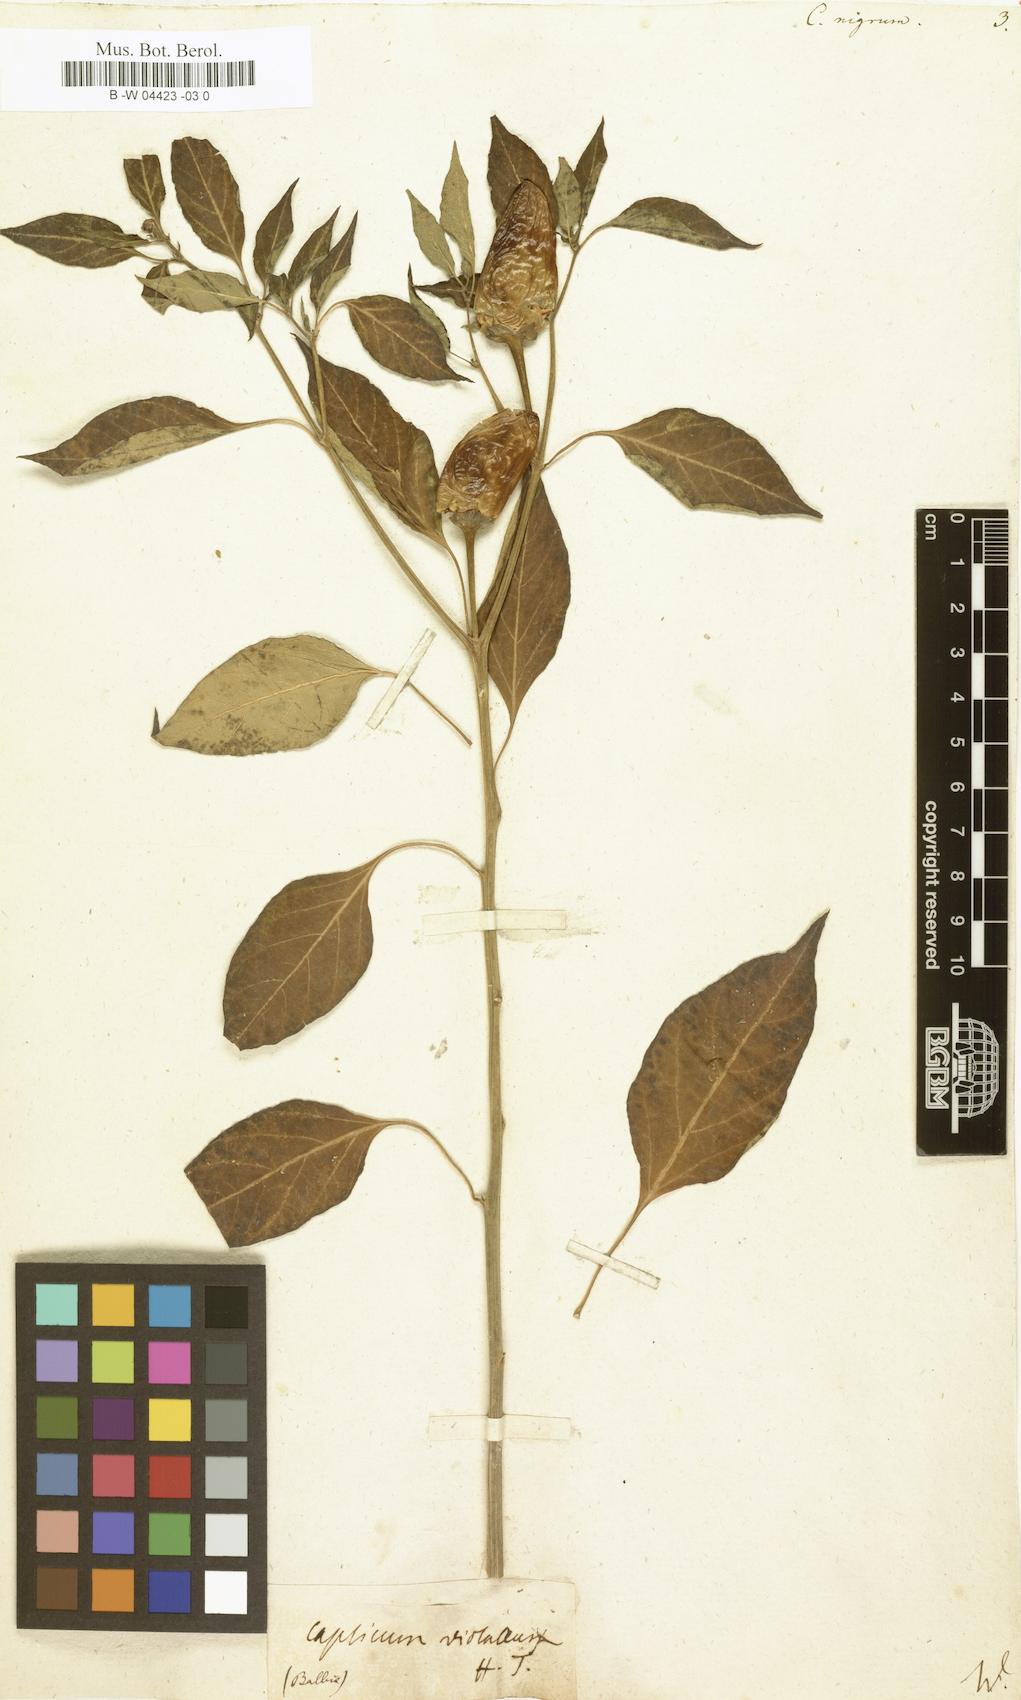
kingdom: Plantae
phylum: Tracheophyta
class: Magnoliopsida
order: Solanales
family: Solanaceae
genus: Capsicum
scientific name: Capsicum annuum
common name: Sweet pepper
